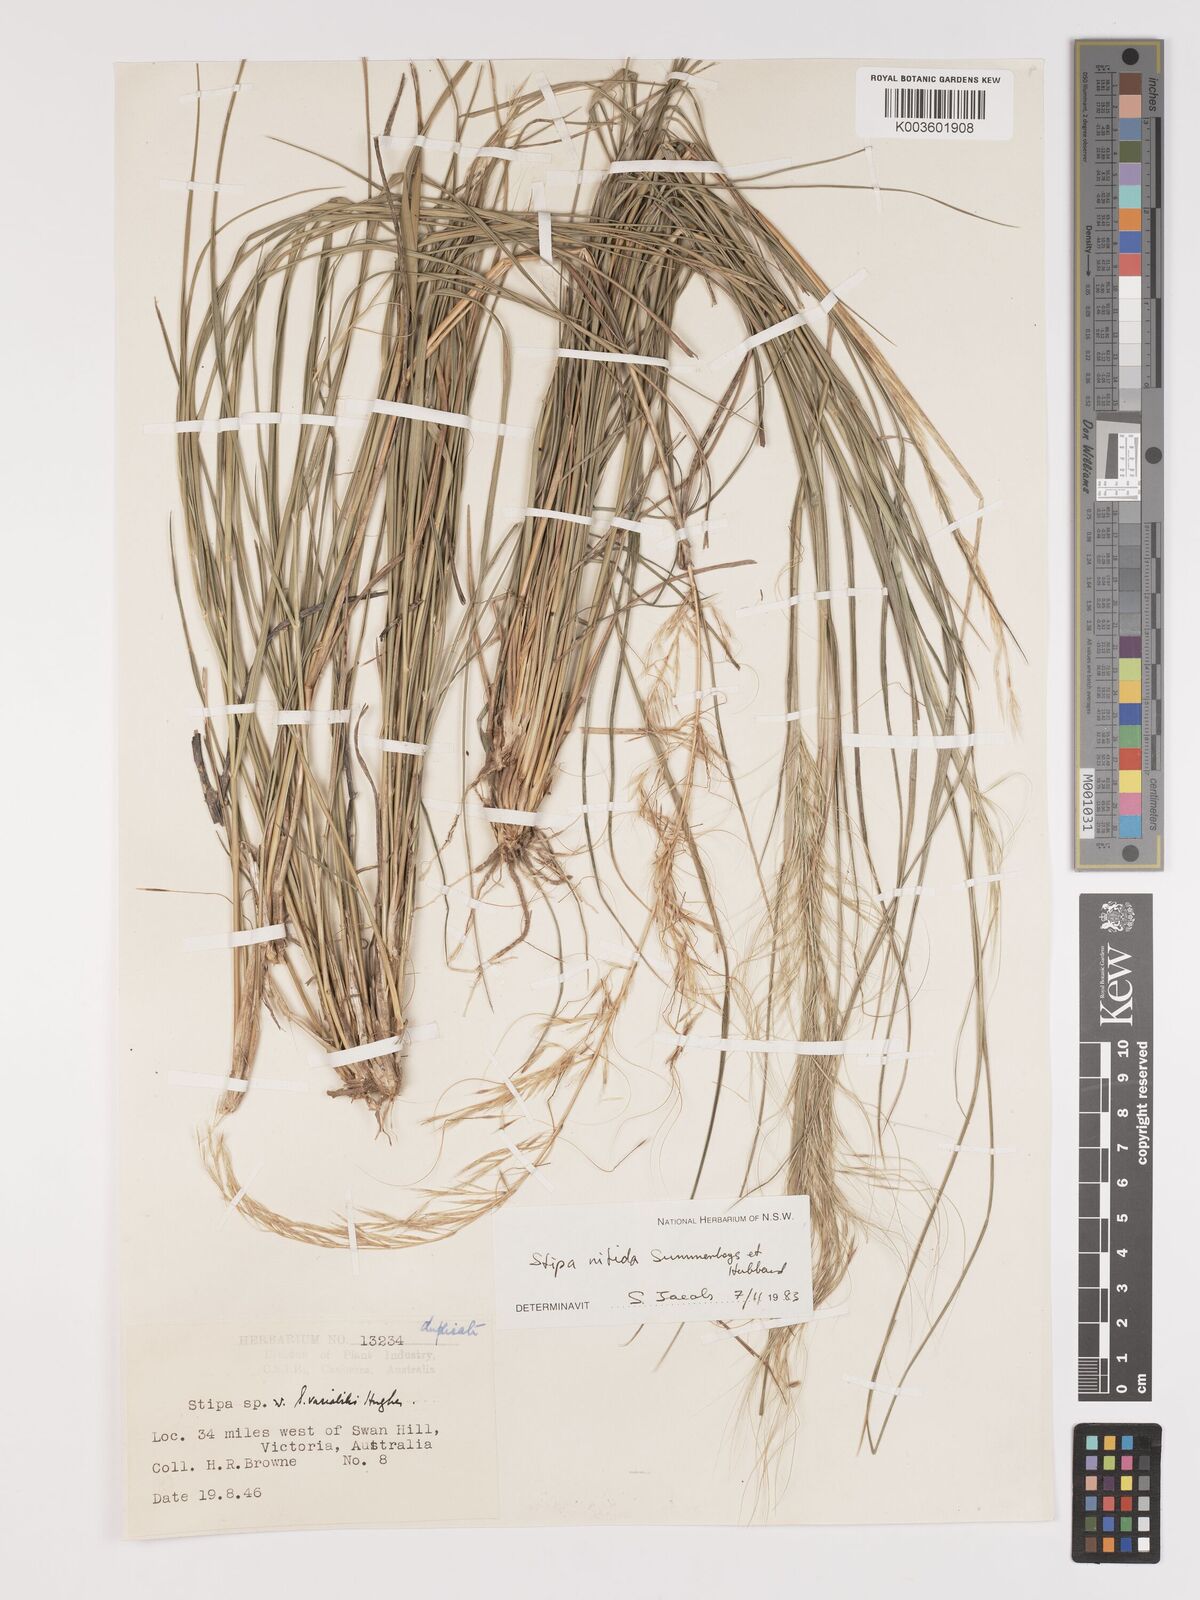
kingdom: Plantae
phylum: Tracheophyta
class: Liliopsida
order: Poales
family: Poaceae
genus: Austrostipa
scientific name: Austrostipa nitida
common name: Balcarra grass
